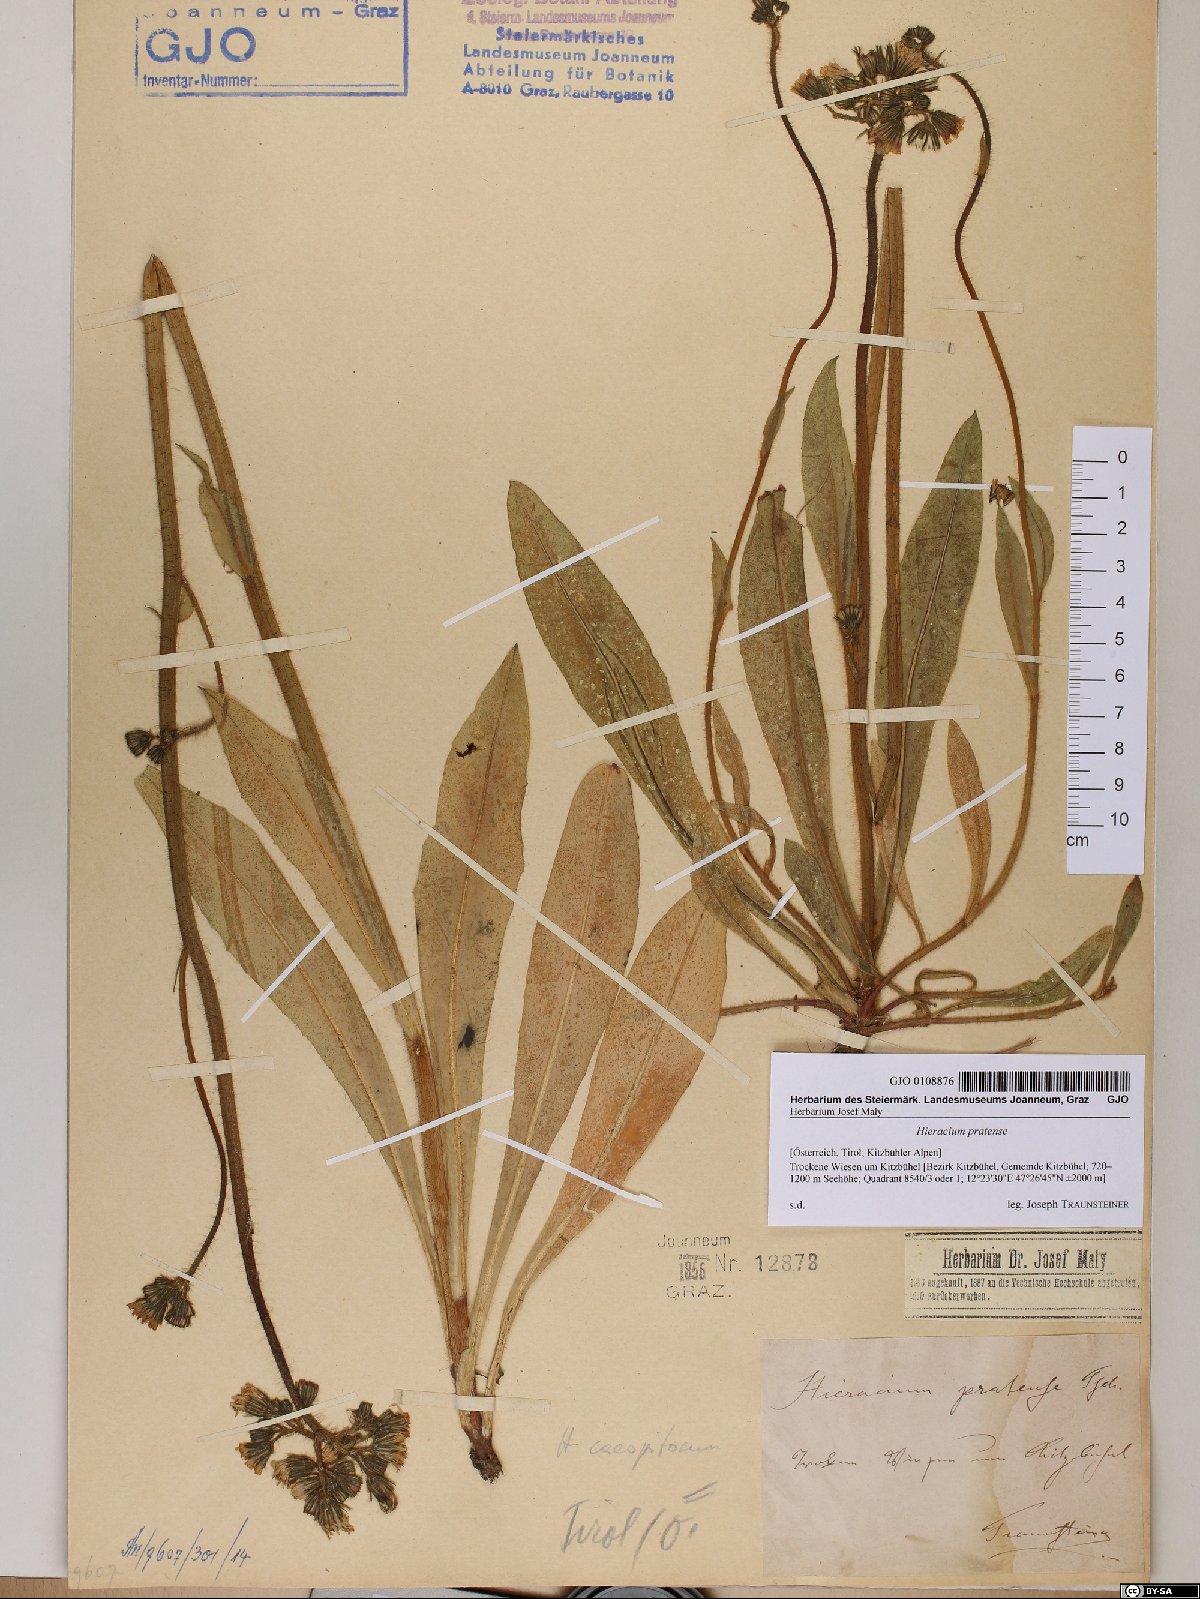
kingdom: Plantae
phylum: Tracheophyta
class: Magnoliopsida
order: Asterales
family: Asteraceae
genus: Pilosella
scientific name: Pilosella caespitosa
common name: Yellow fox-and-cubs
